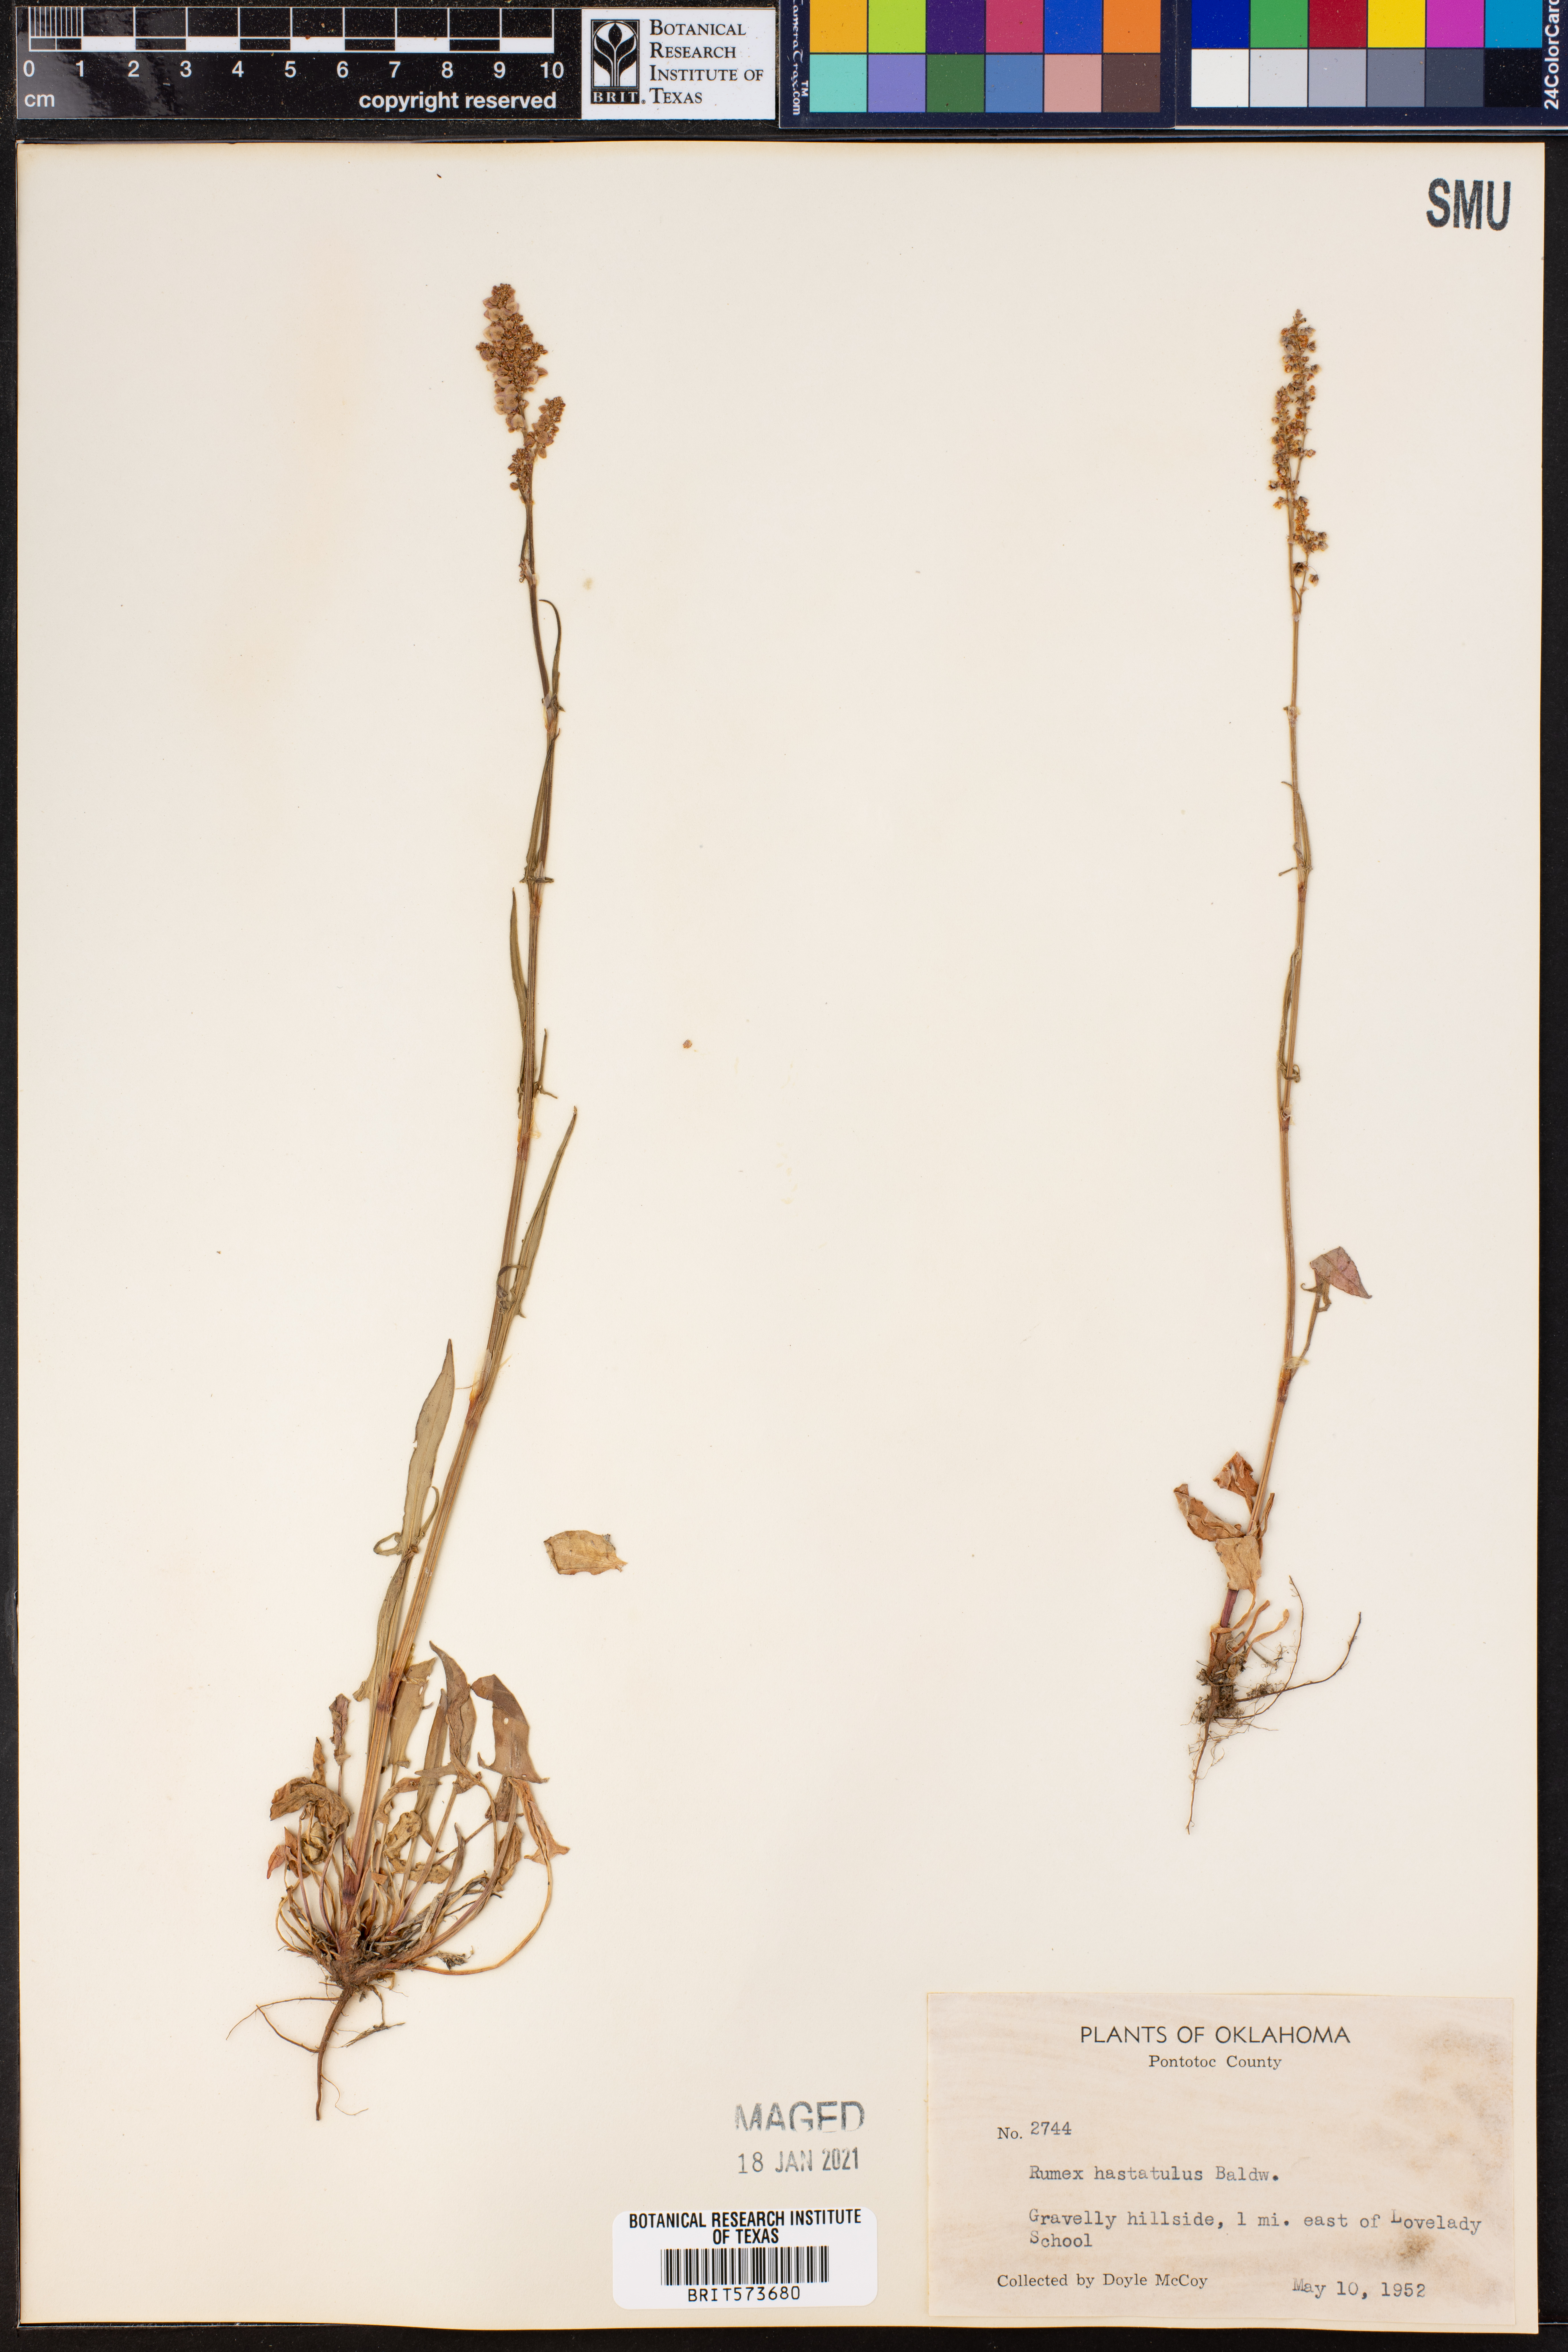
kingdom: Plantae
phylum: Tracheophyta
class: Magnoliopsida
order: Caryophyllales
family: Polygonaceae
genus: Rumex
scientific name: Rumex hastatulus
